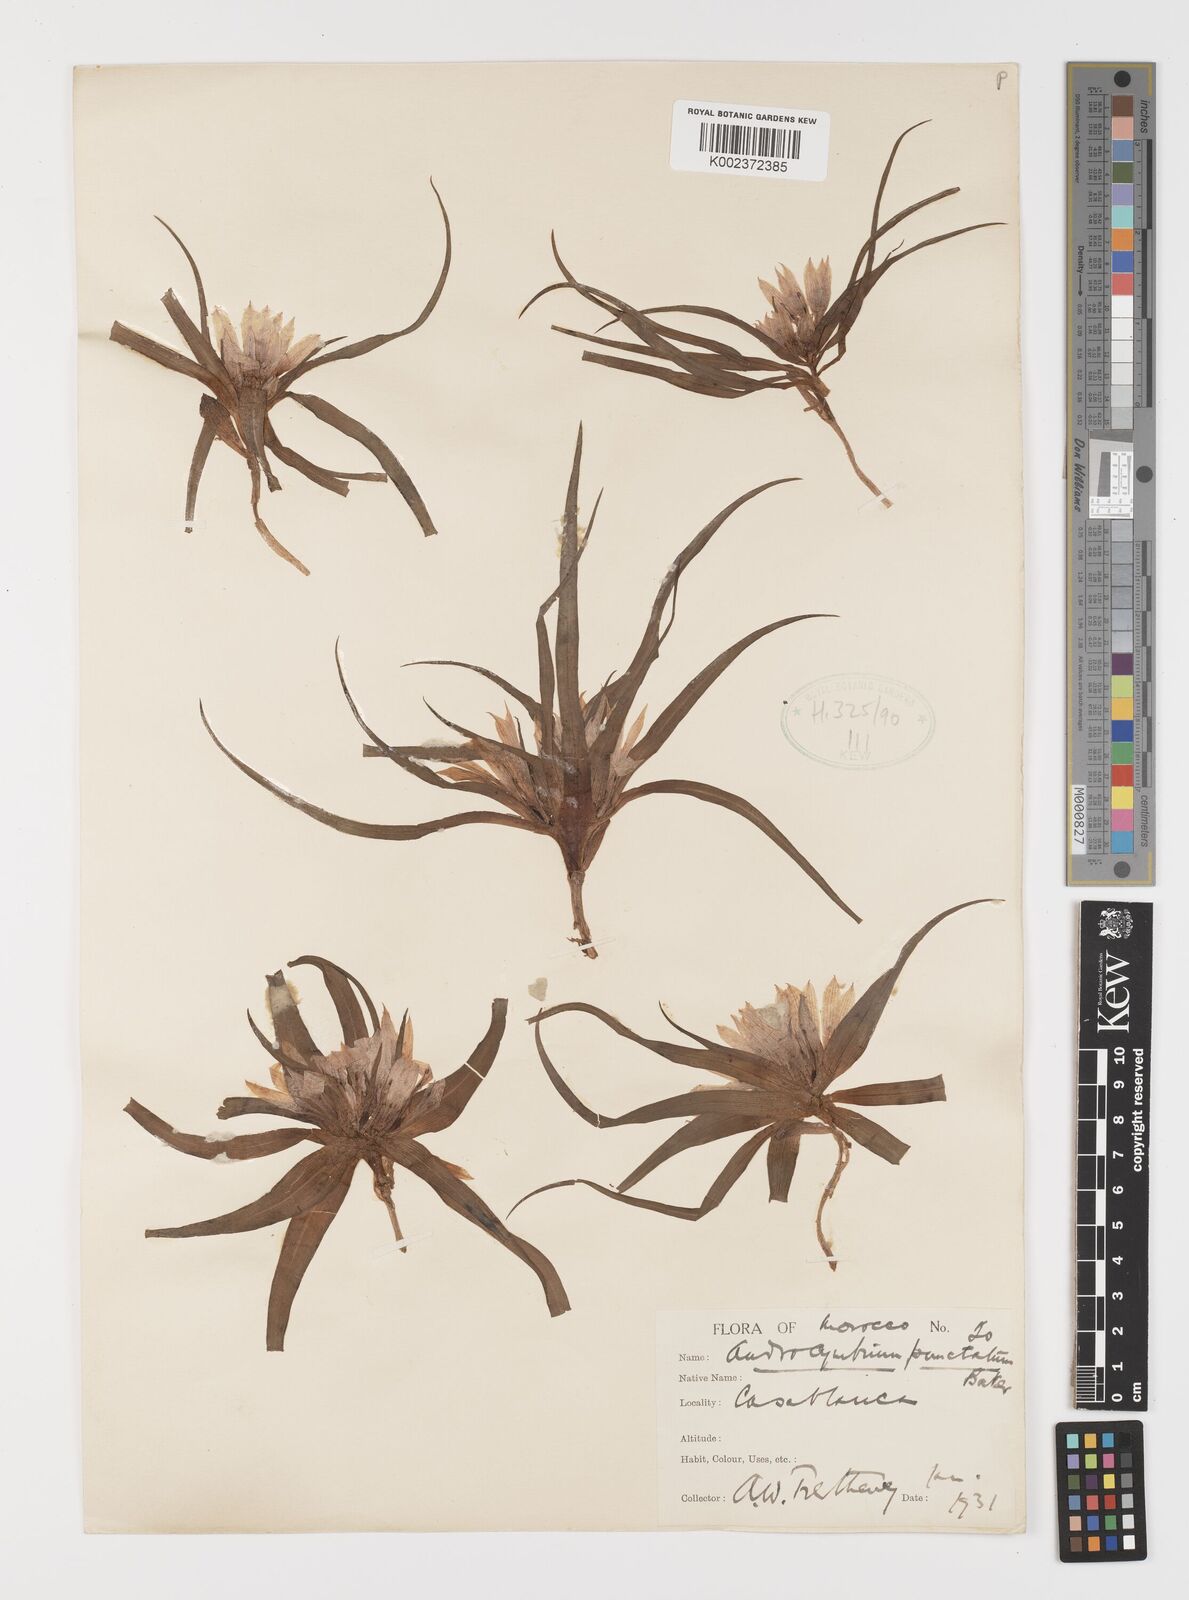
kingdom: Plantae
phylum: Tracheophyta
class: Liliopsida
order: Liliales
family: Colchicaceae
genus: Colchicum
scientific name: Colchicum gramineum
